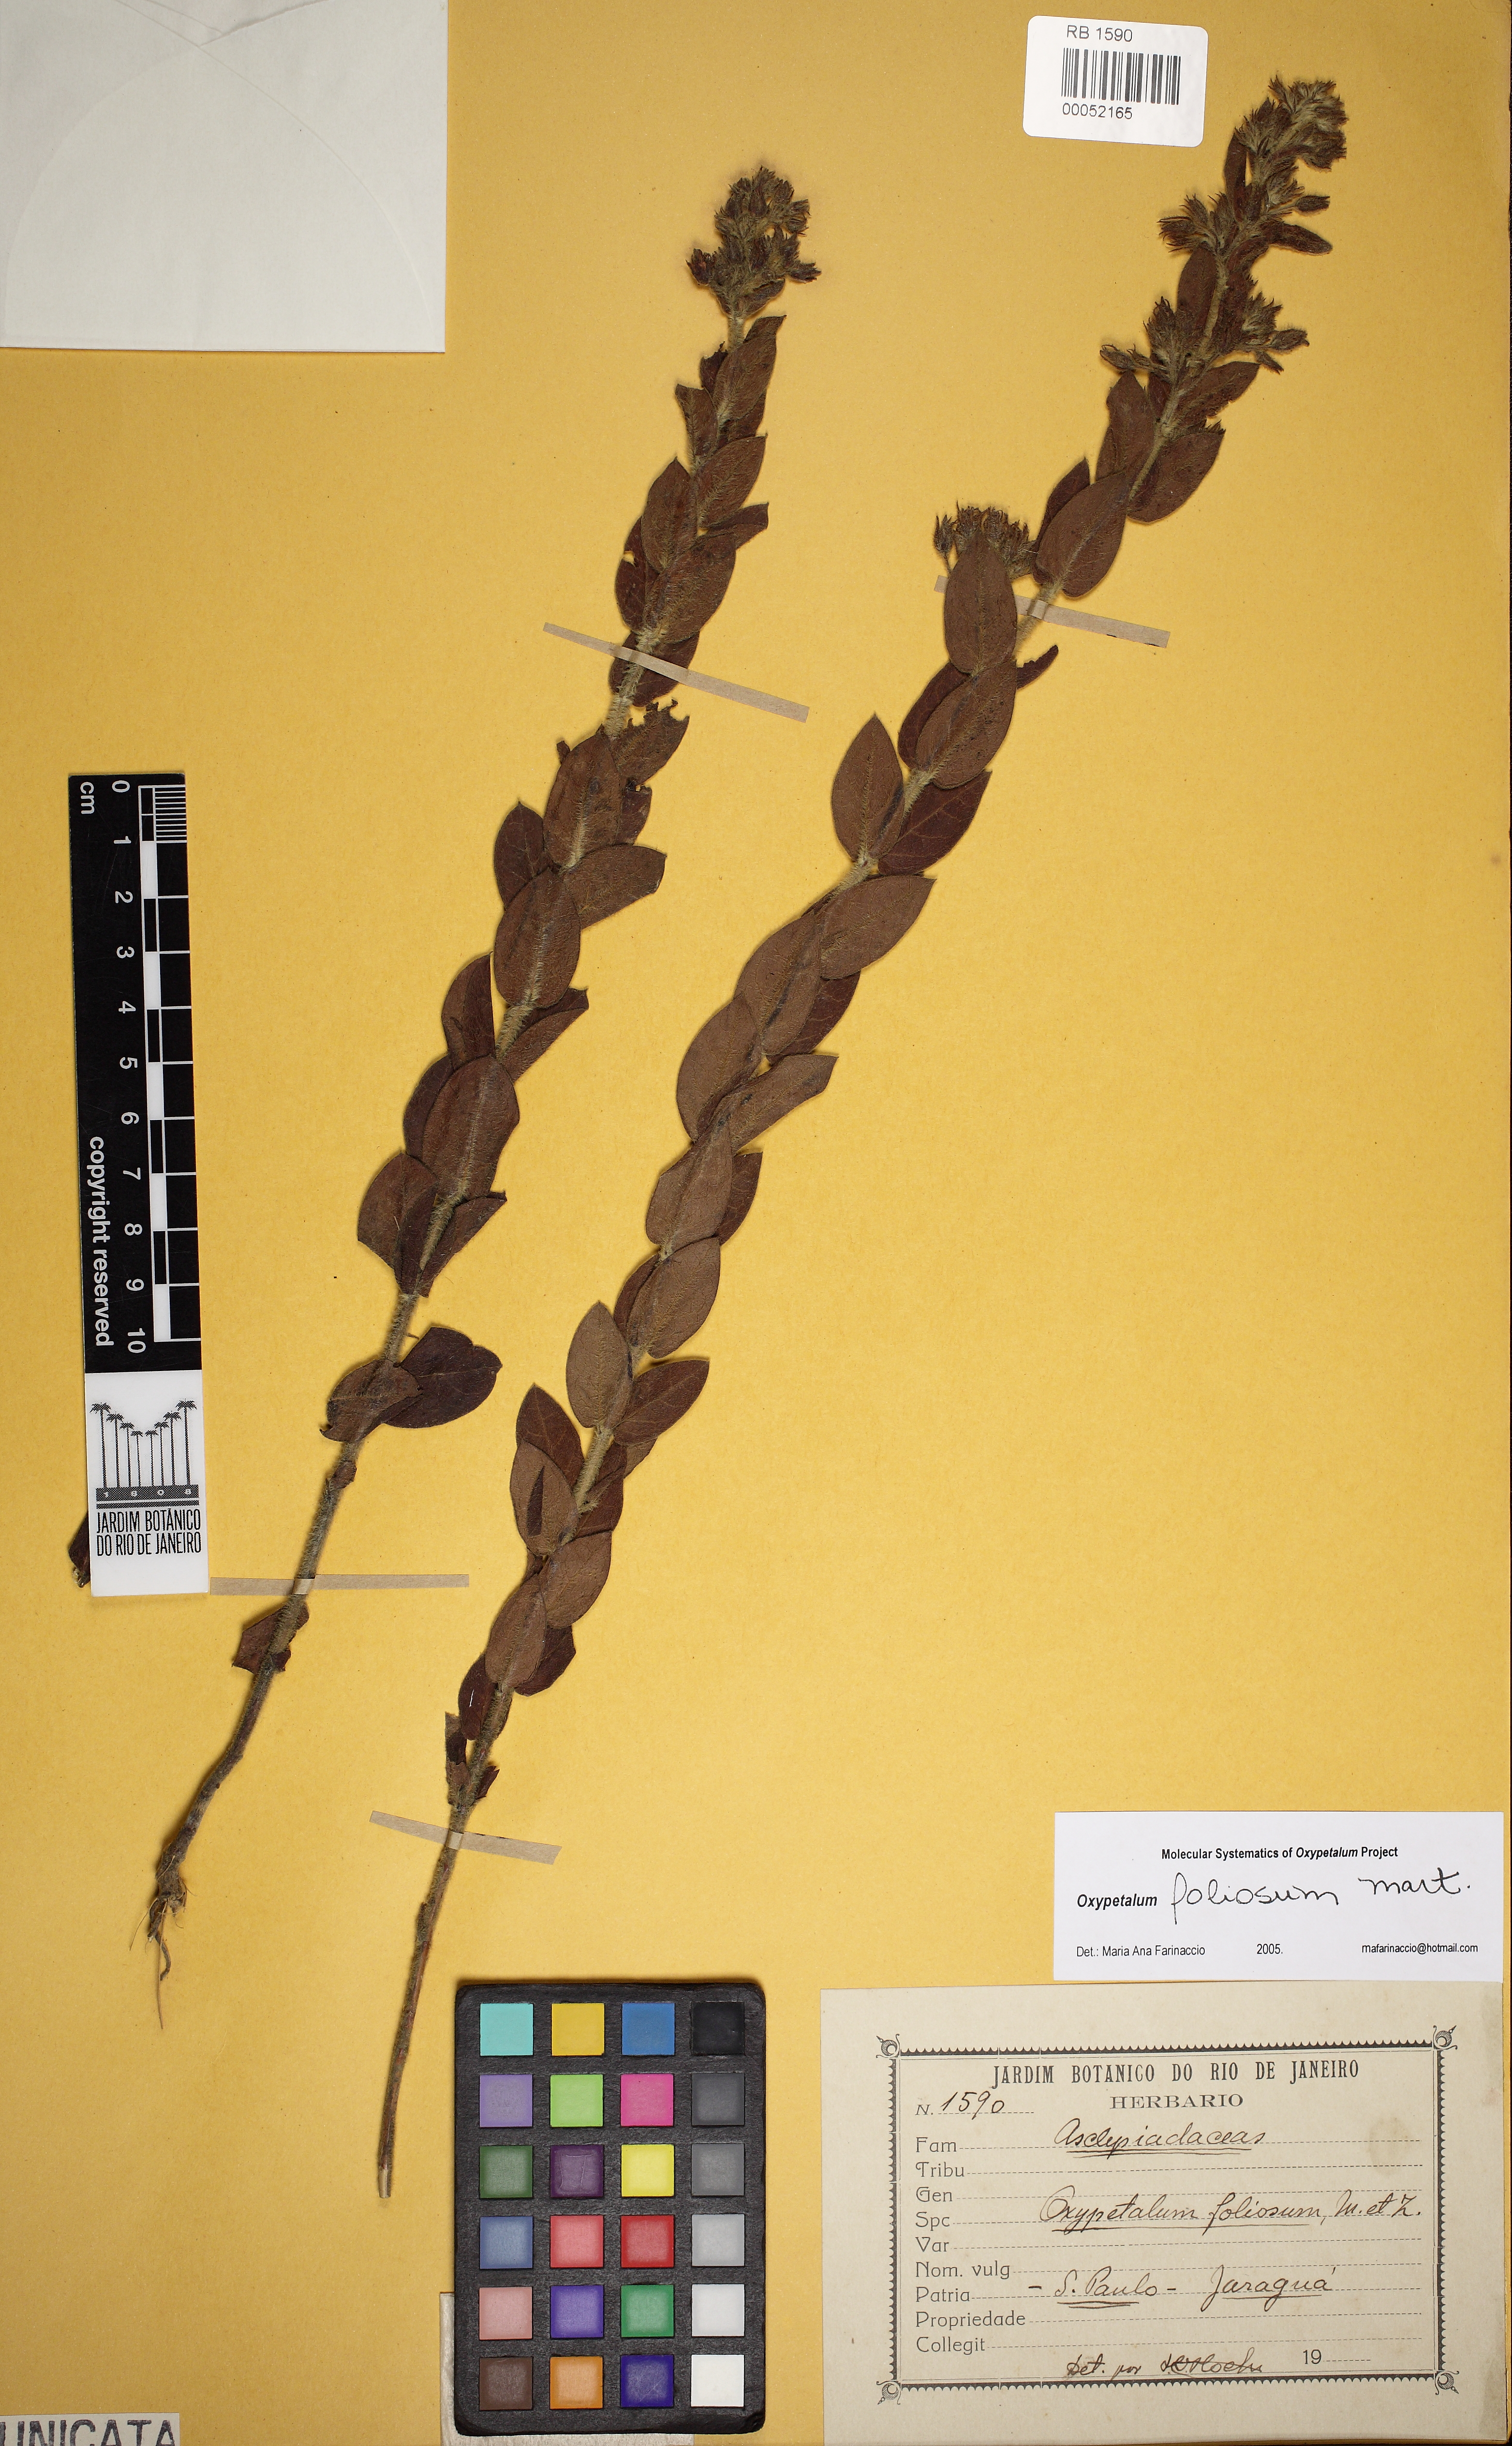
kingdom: Plantae
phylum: Tracheophyta
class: Magnoliopsida
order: Gentianales
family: Apocynaceae
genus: Oxypetalum
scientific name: Oxypetalum foliosum
